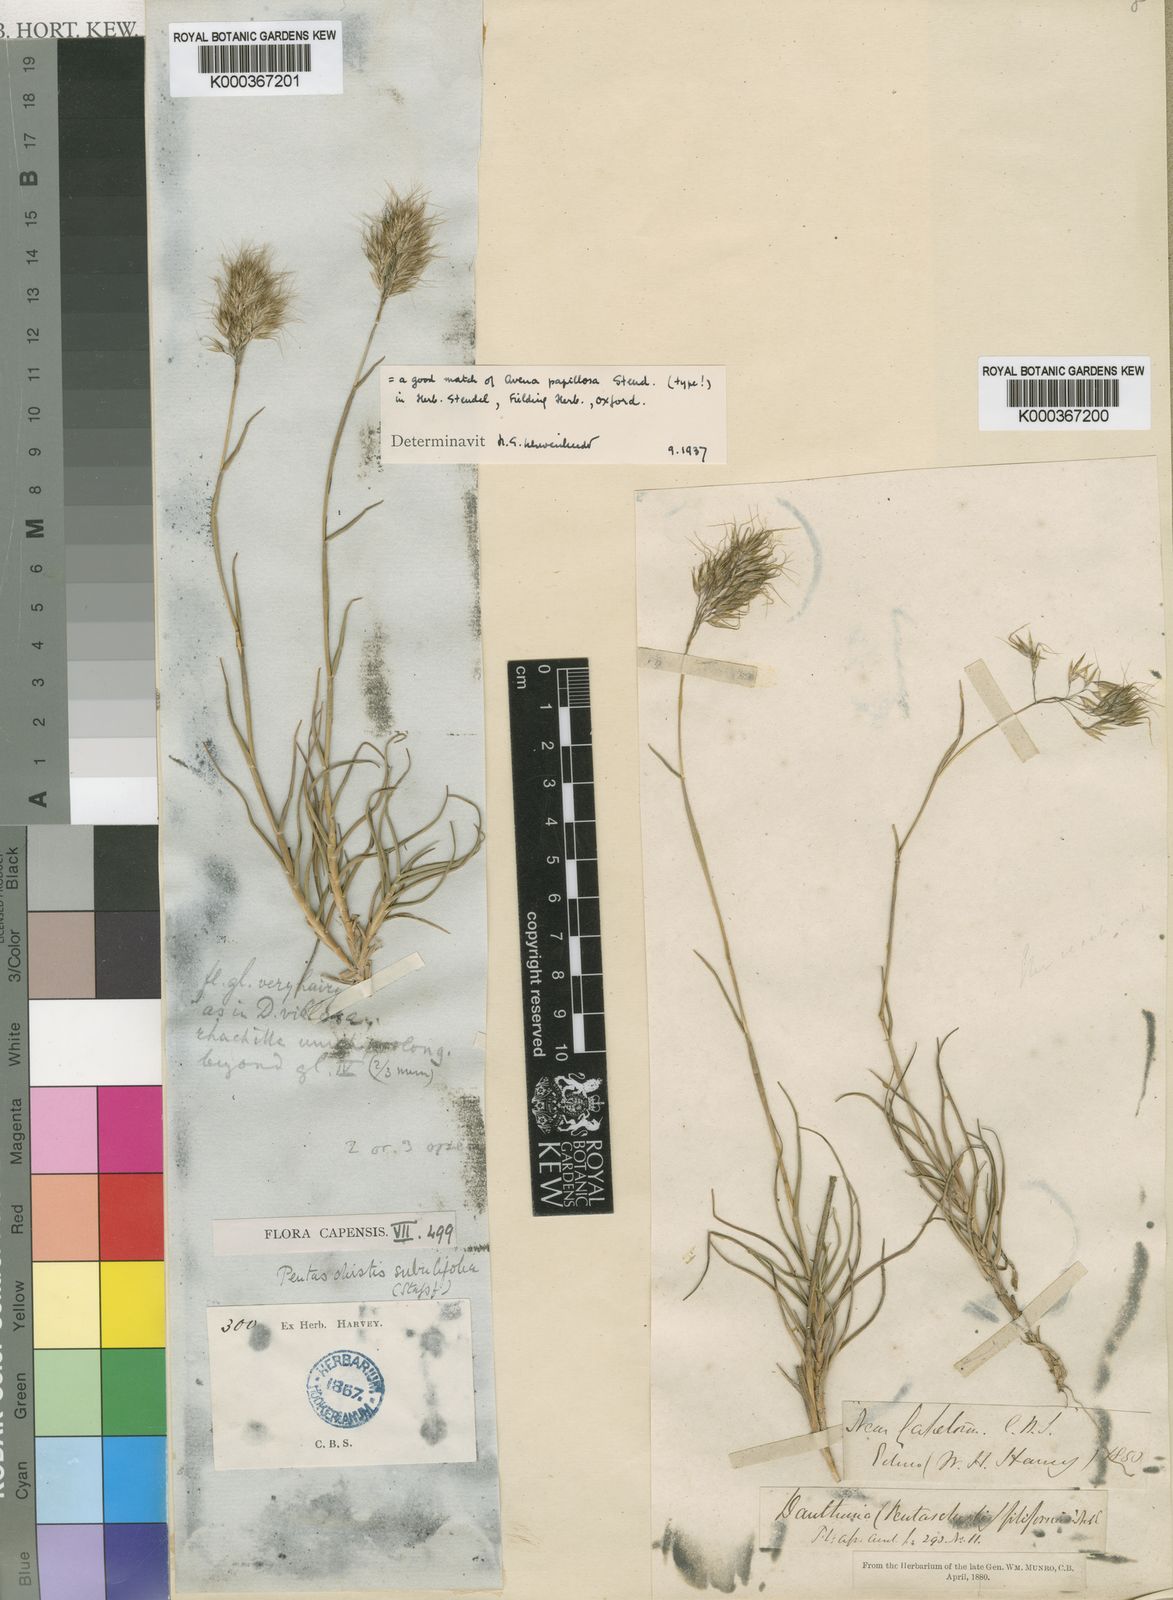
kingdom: Plantae
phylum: Tracheophyta
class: Liliopsida
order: Poales
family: Poaceae
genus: Pentameris
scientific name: Pentameris scabra
